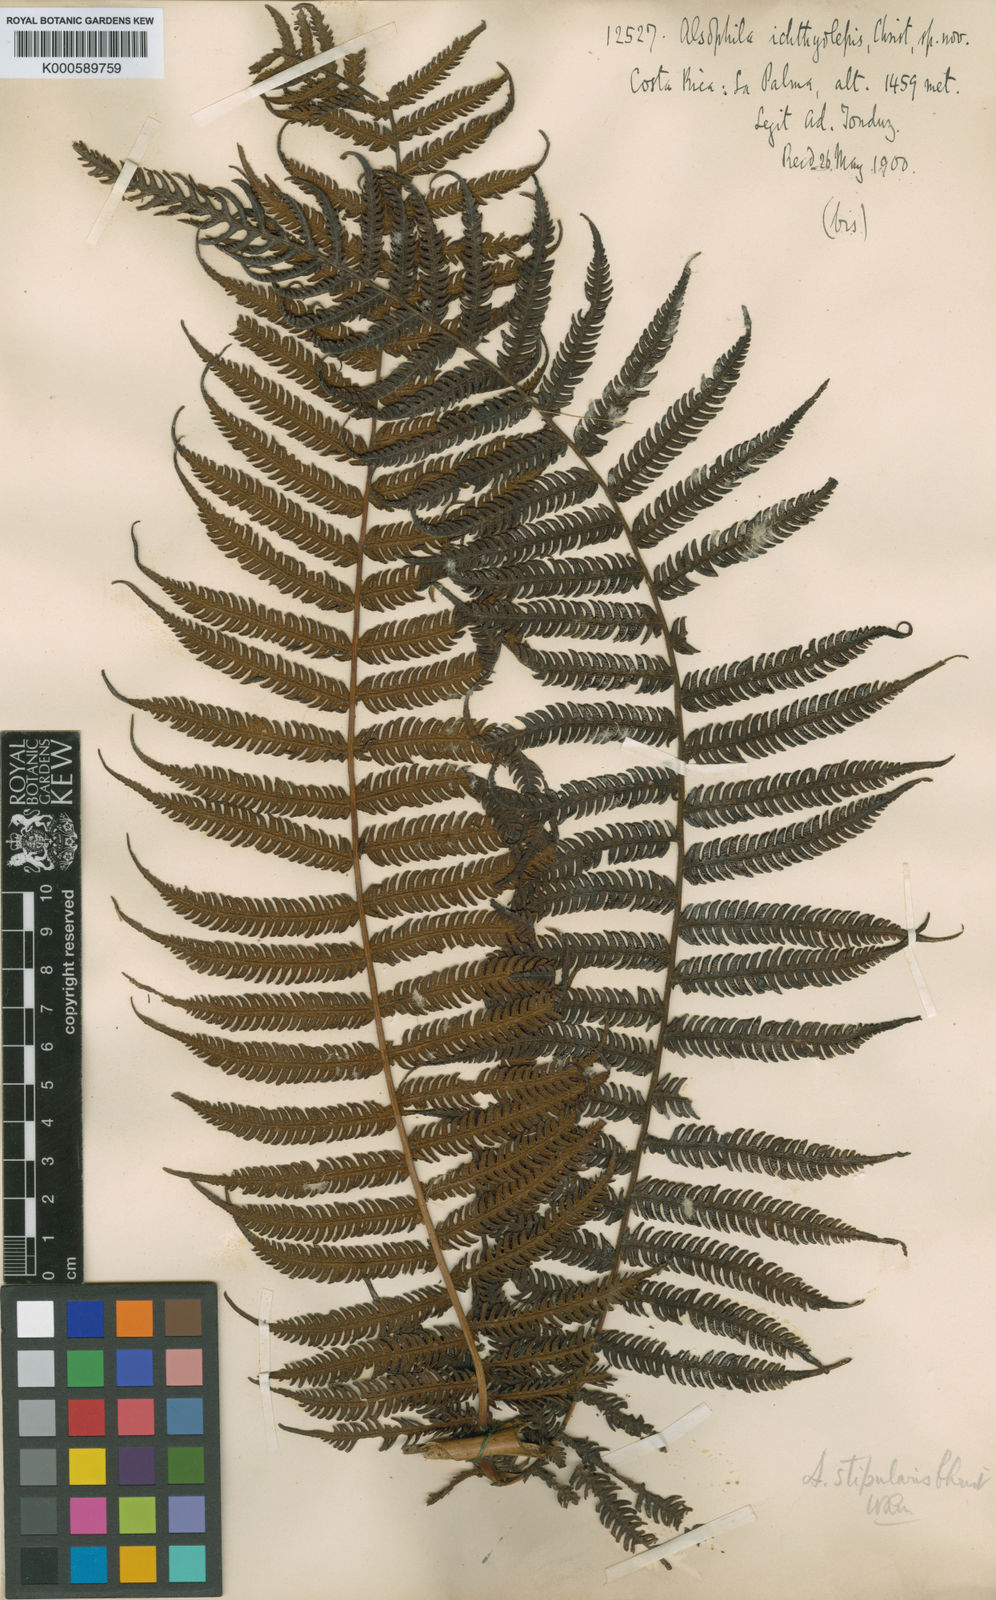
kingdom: Plantae
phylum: Tracheophyta
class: Polypodiopsida
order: Cyatheales
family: Cyatheaceae
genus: Cyathea
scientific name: Cyathea bicrenata
